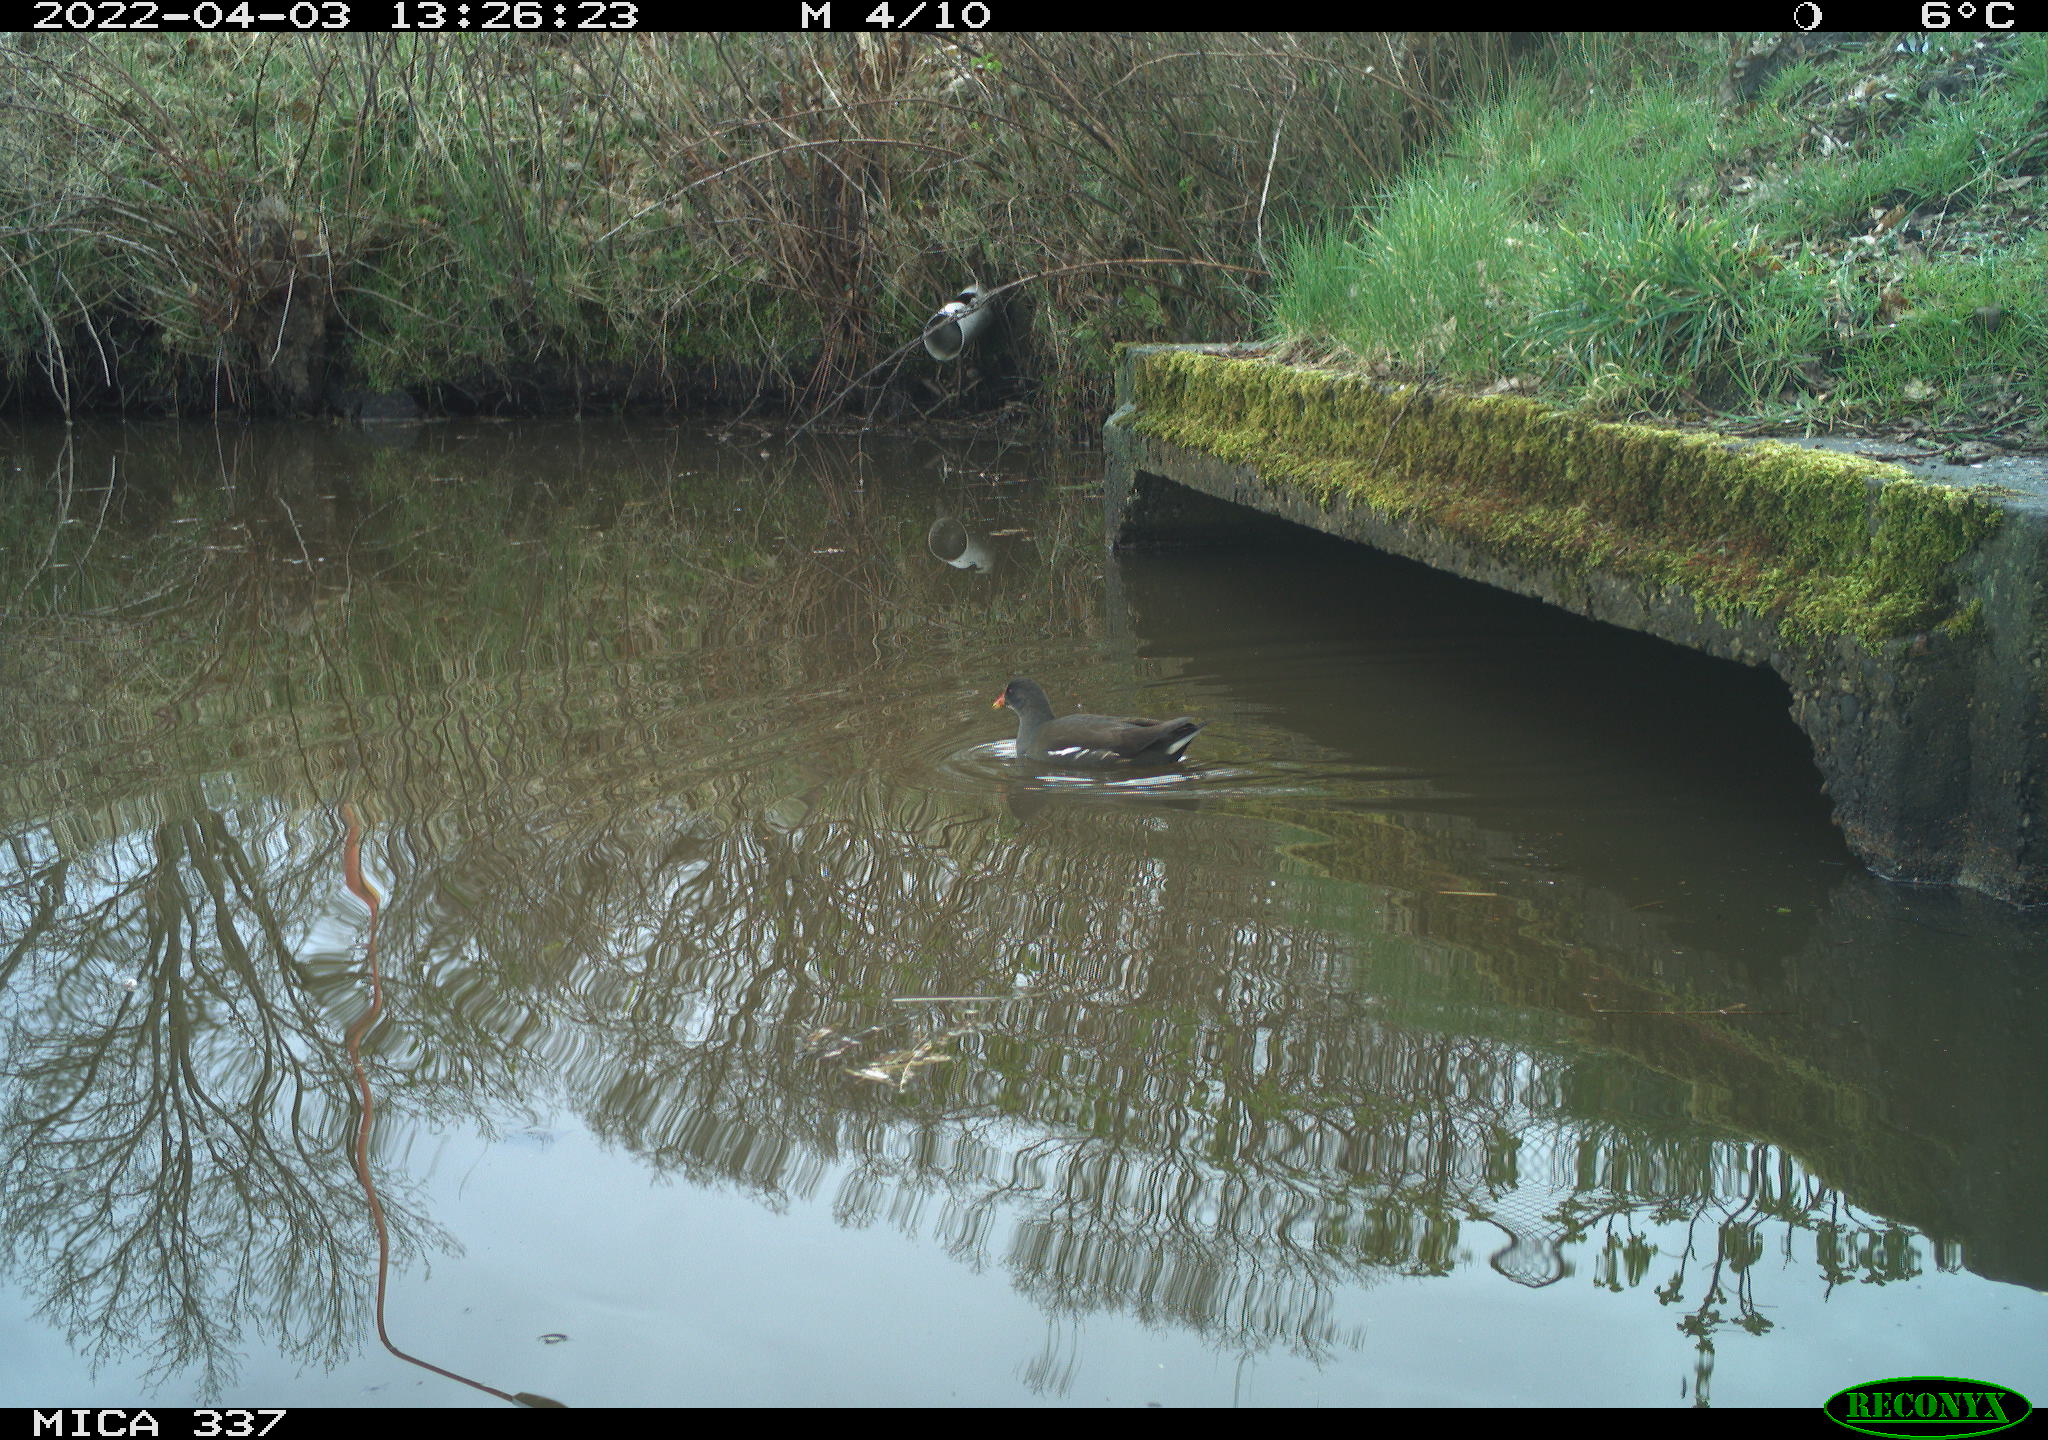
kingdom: Animalia
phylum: Chordata
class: Aves
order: Gruiformes
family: Rallidae
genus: Gallinula
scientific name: Gallinula chloropus
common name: Common moorhen
